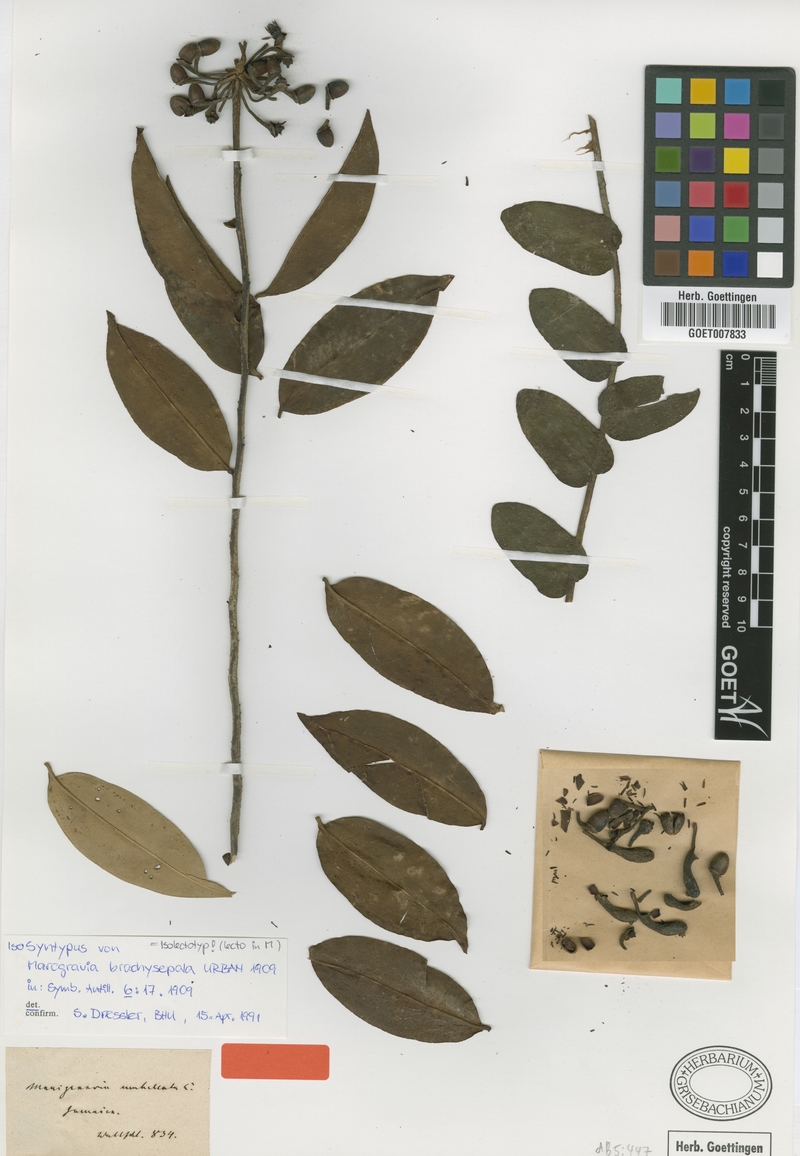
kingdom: Plantae
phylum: Tracheophyta
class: Magnoliopsida
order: Ericales
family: Marcgraviaceae
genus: Marcgravia
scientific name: Marcgravia brachysepala
